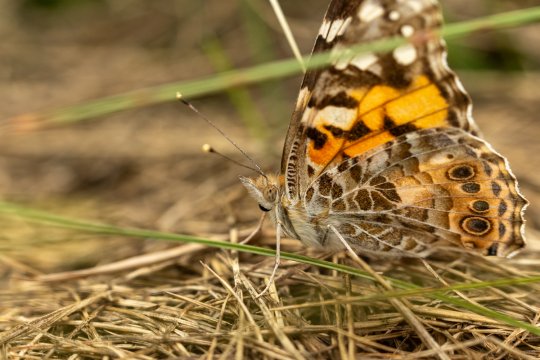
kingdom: Animalia
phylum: Arthropoda
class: Insecta
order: Lepidoptera
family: Nymphalidae
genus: Vanessa
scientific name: Vanessa cardui
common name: Painted Lady
